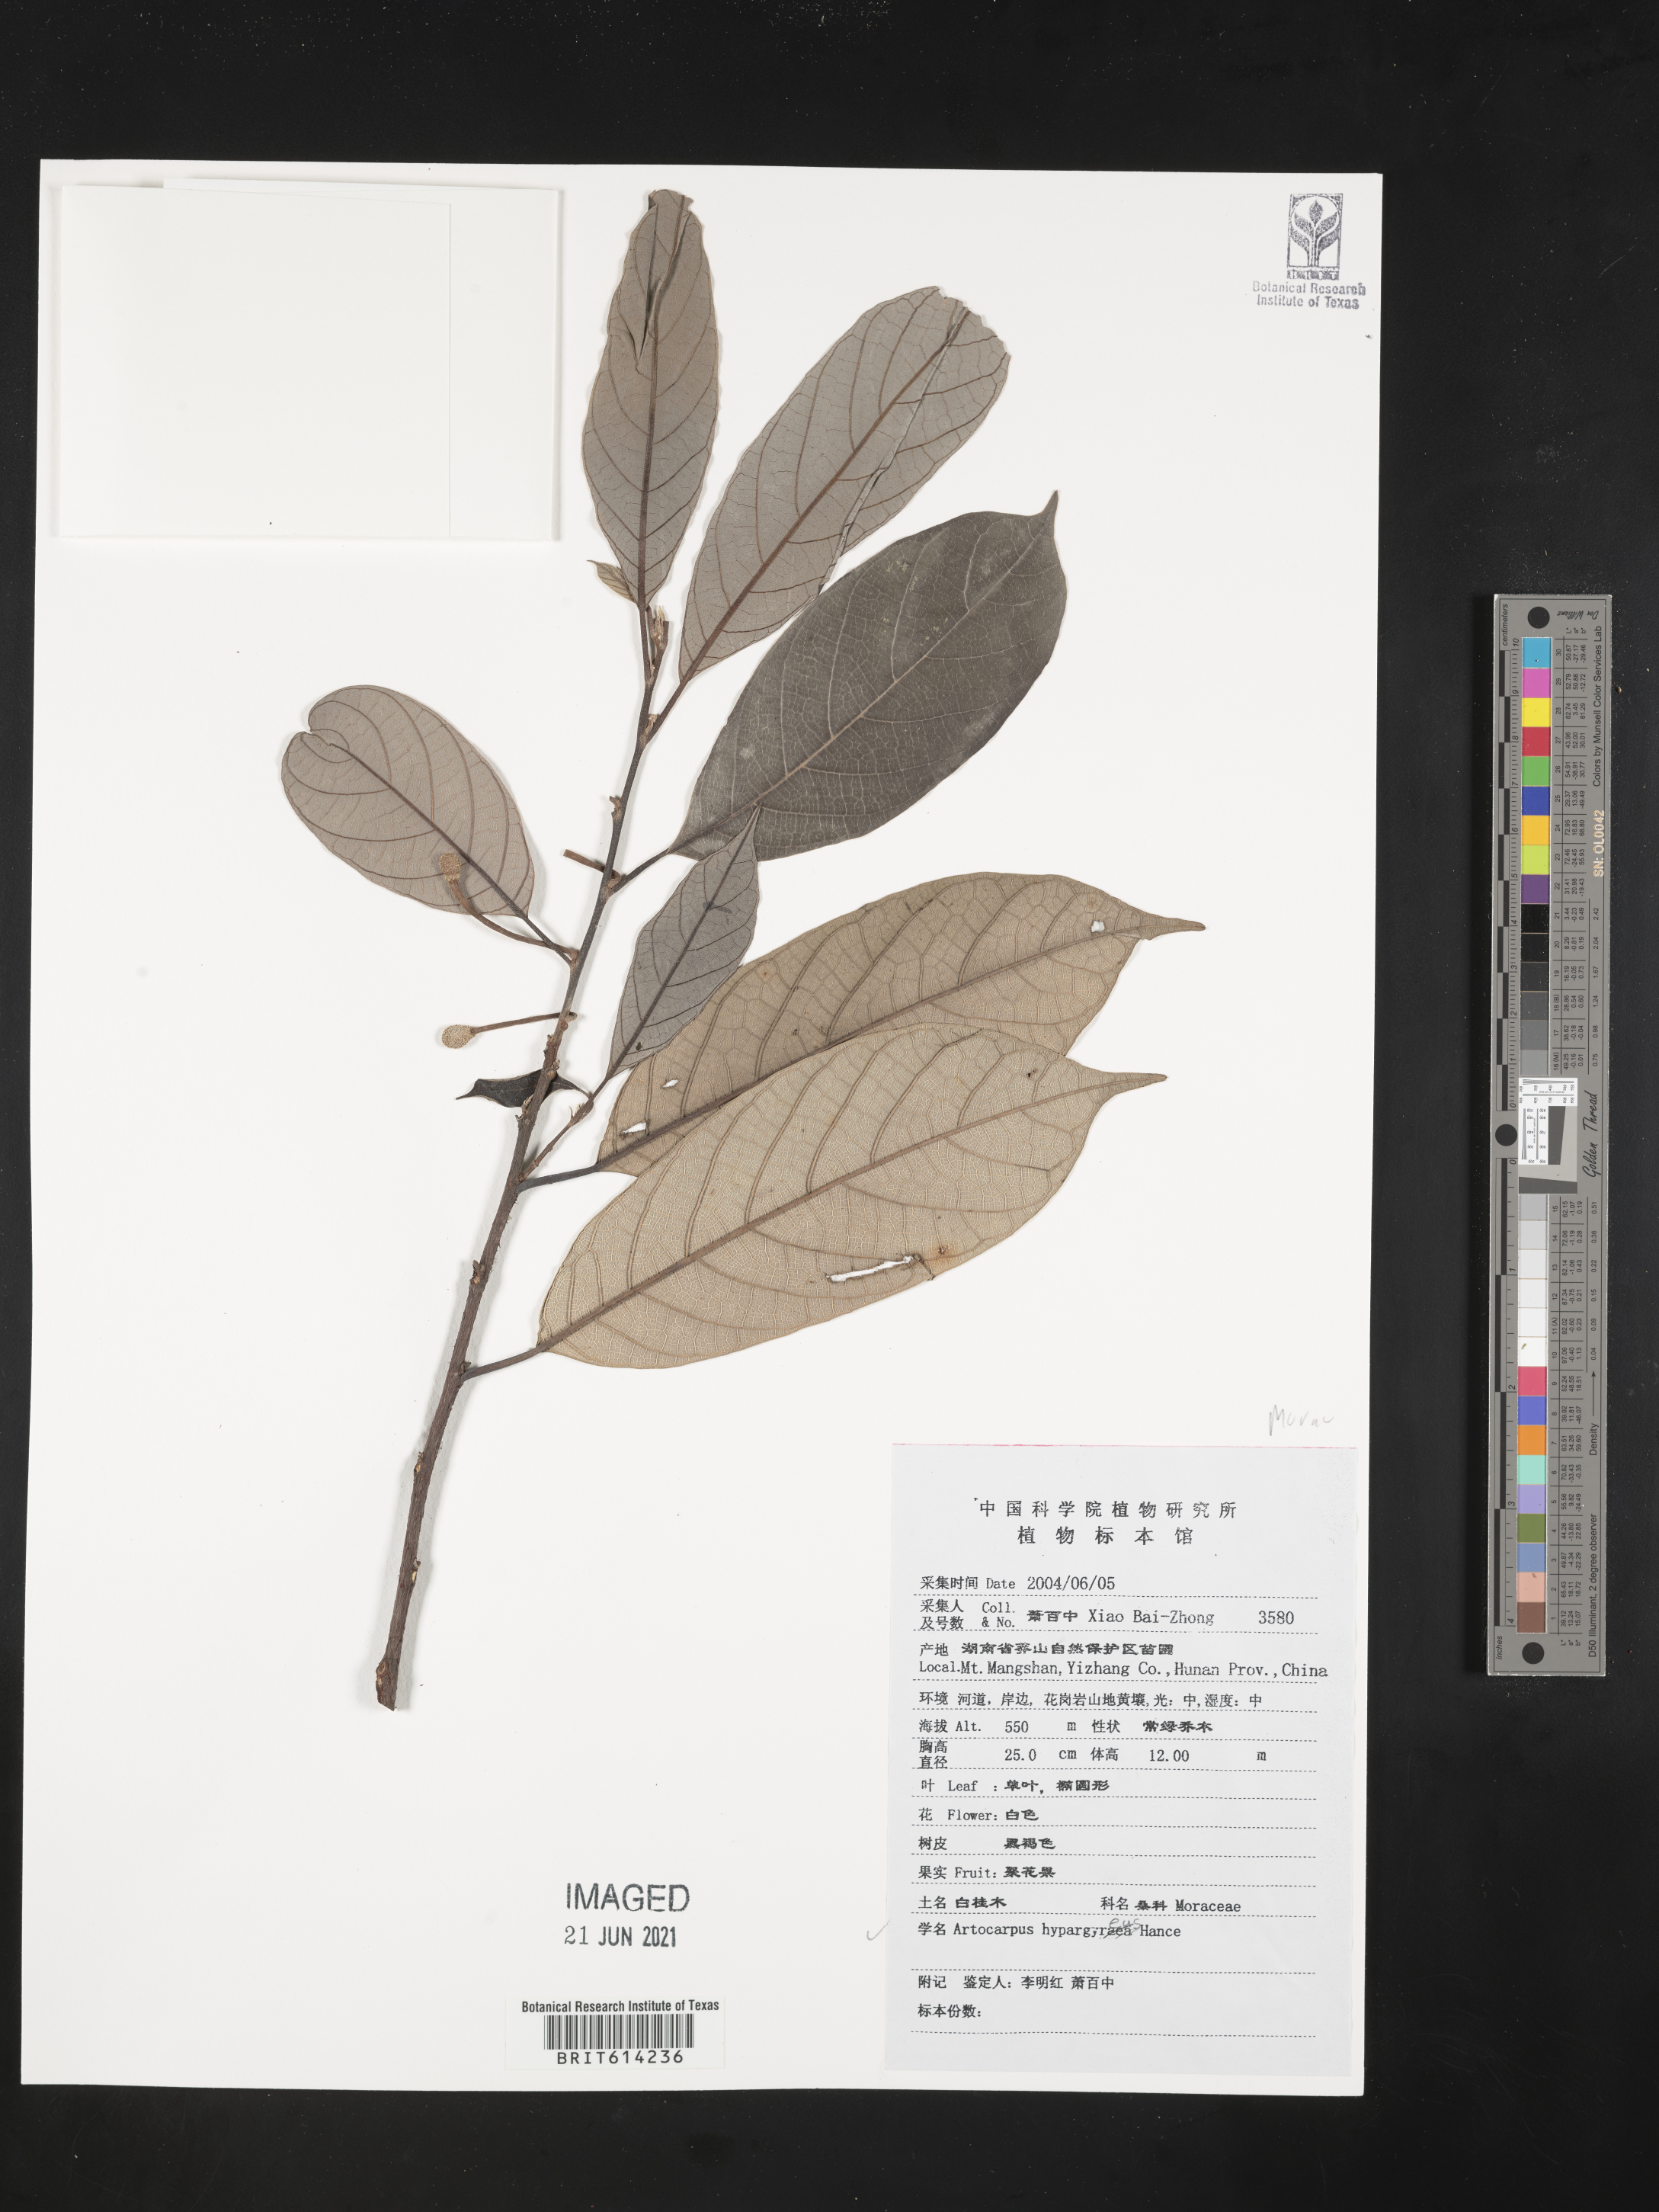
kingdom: Plantae
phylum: Tracheophyta
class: Magnoliopsida
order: Rosales
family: Moraceae
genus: Artocarpus
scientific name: Artocarpus hypargyreus
